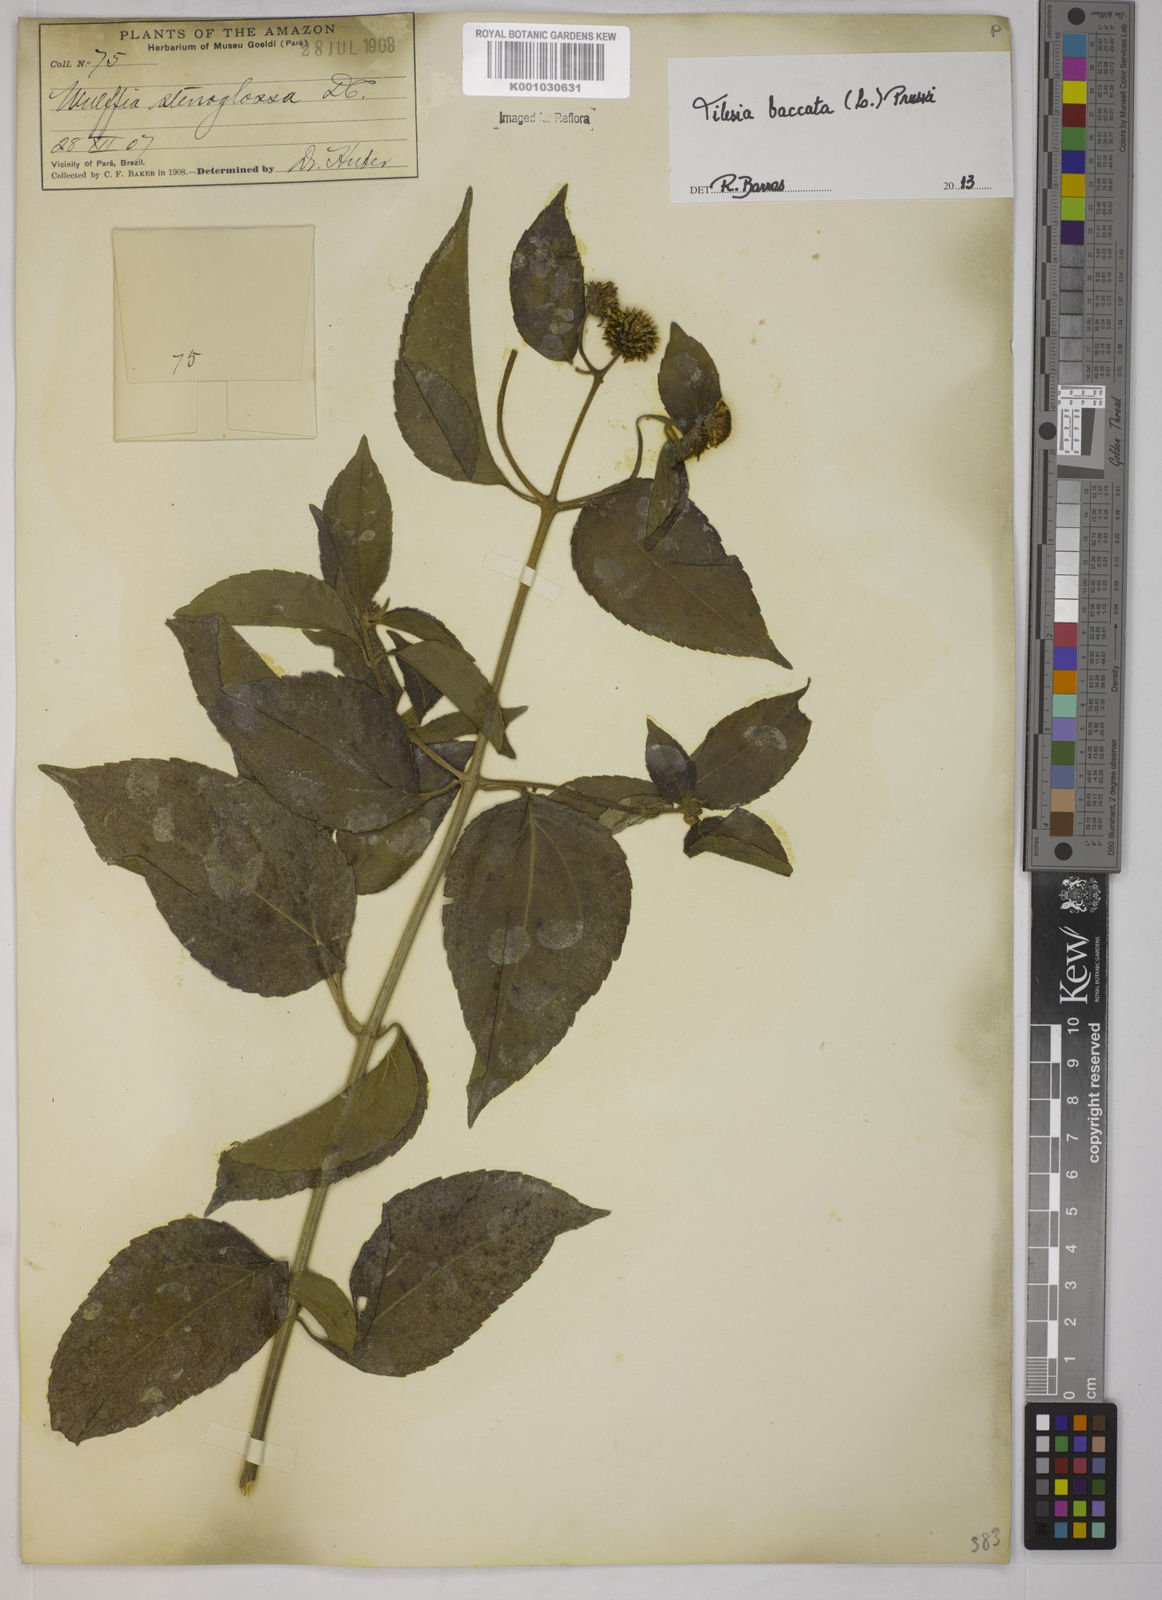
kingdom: Plantae
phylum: Tracheophyta
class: Magnoliopsida
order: Asterales
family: Asteraceae
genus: Tilesia
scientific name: Tilesia baccata
